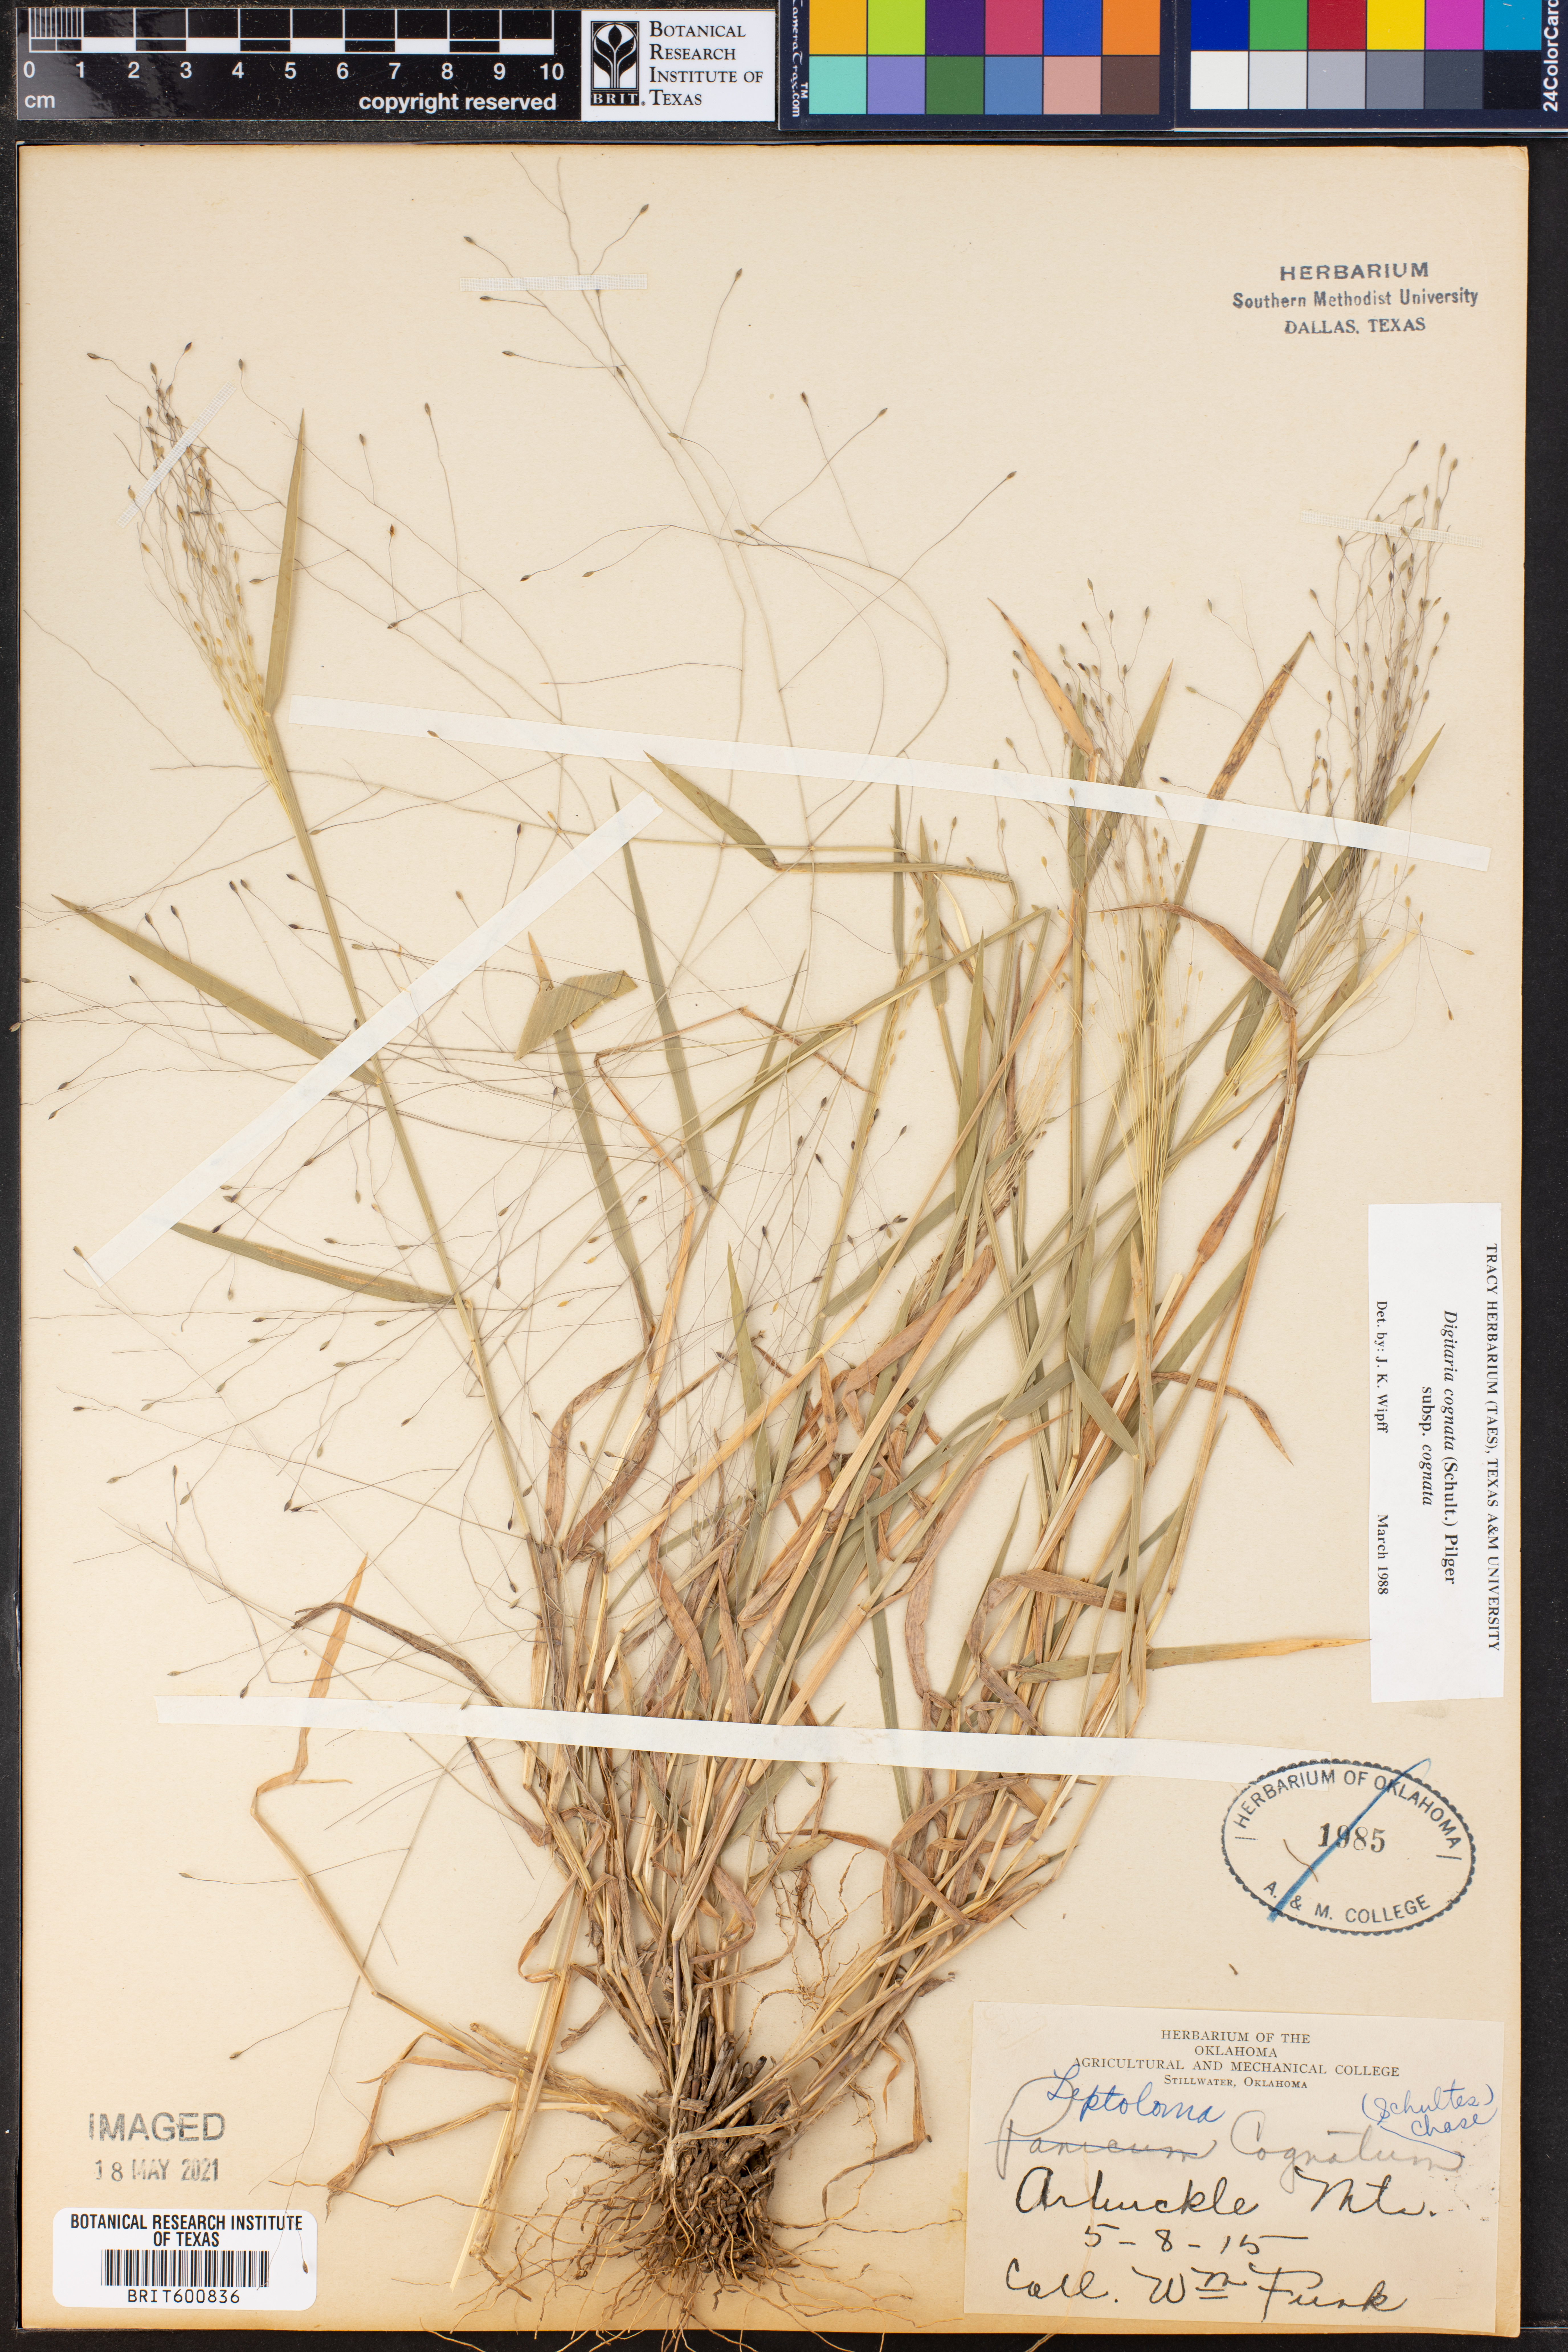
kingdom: Plantae
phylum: Tracheophyta
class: Liliopsida
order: Poales
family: Poaceae
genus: Digitaria
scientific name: Digitaria cognata
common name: Fall witchgrass
